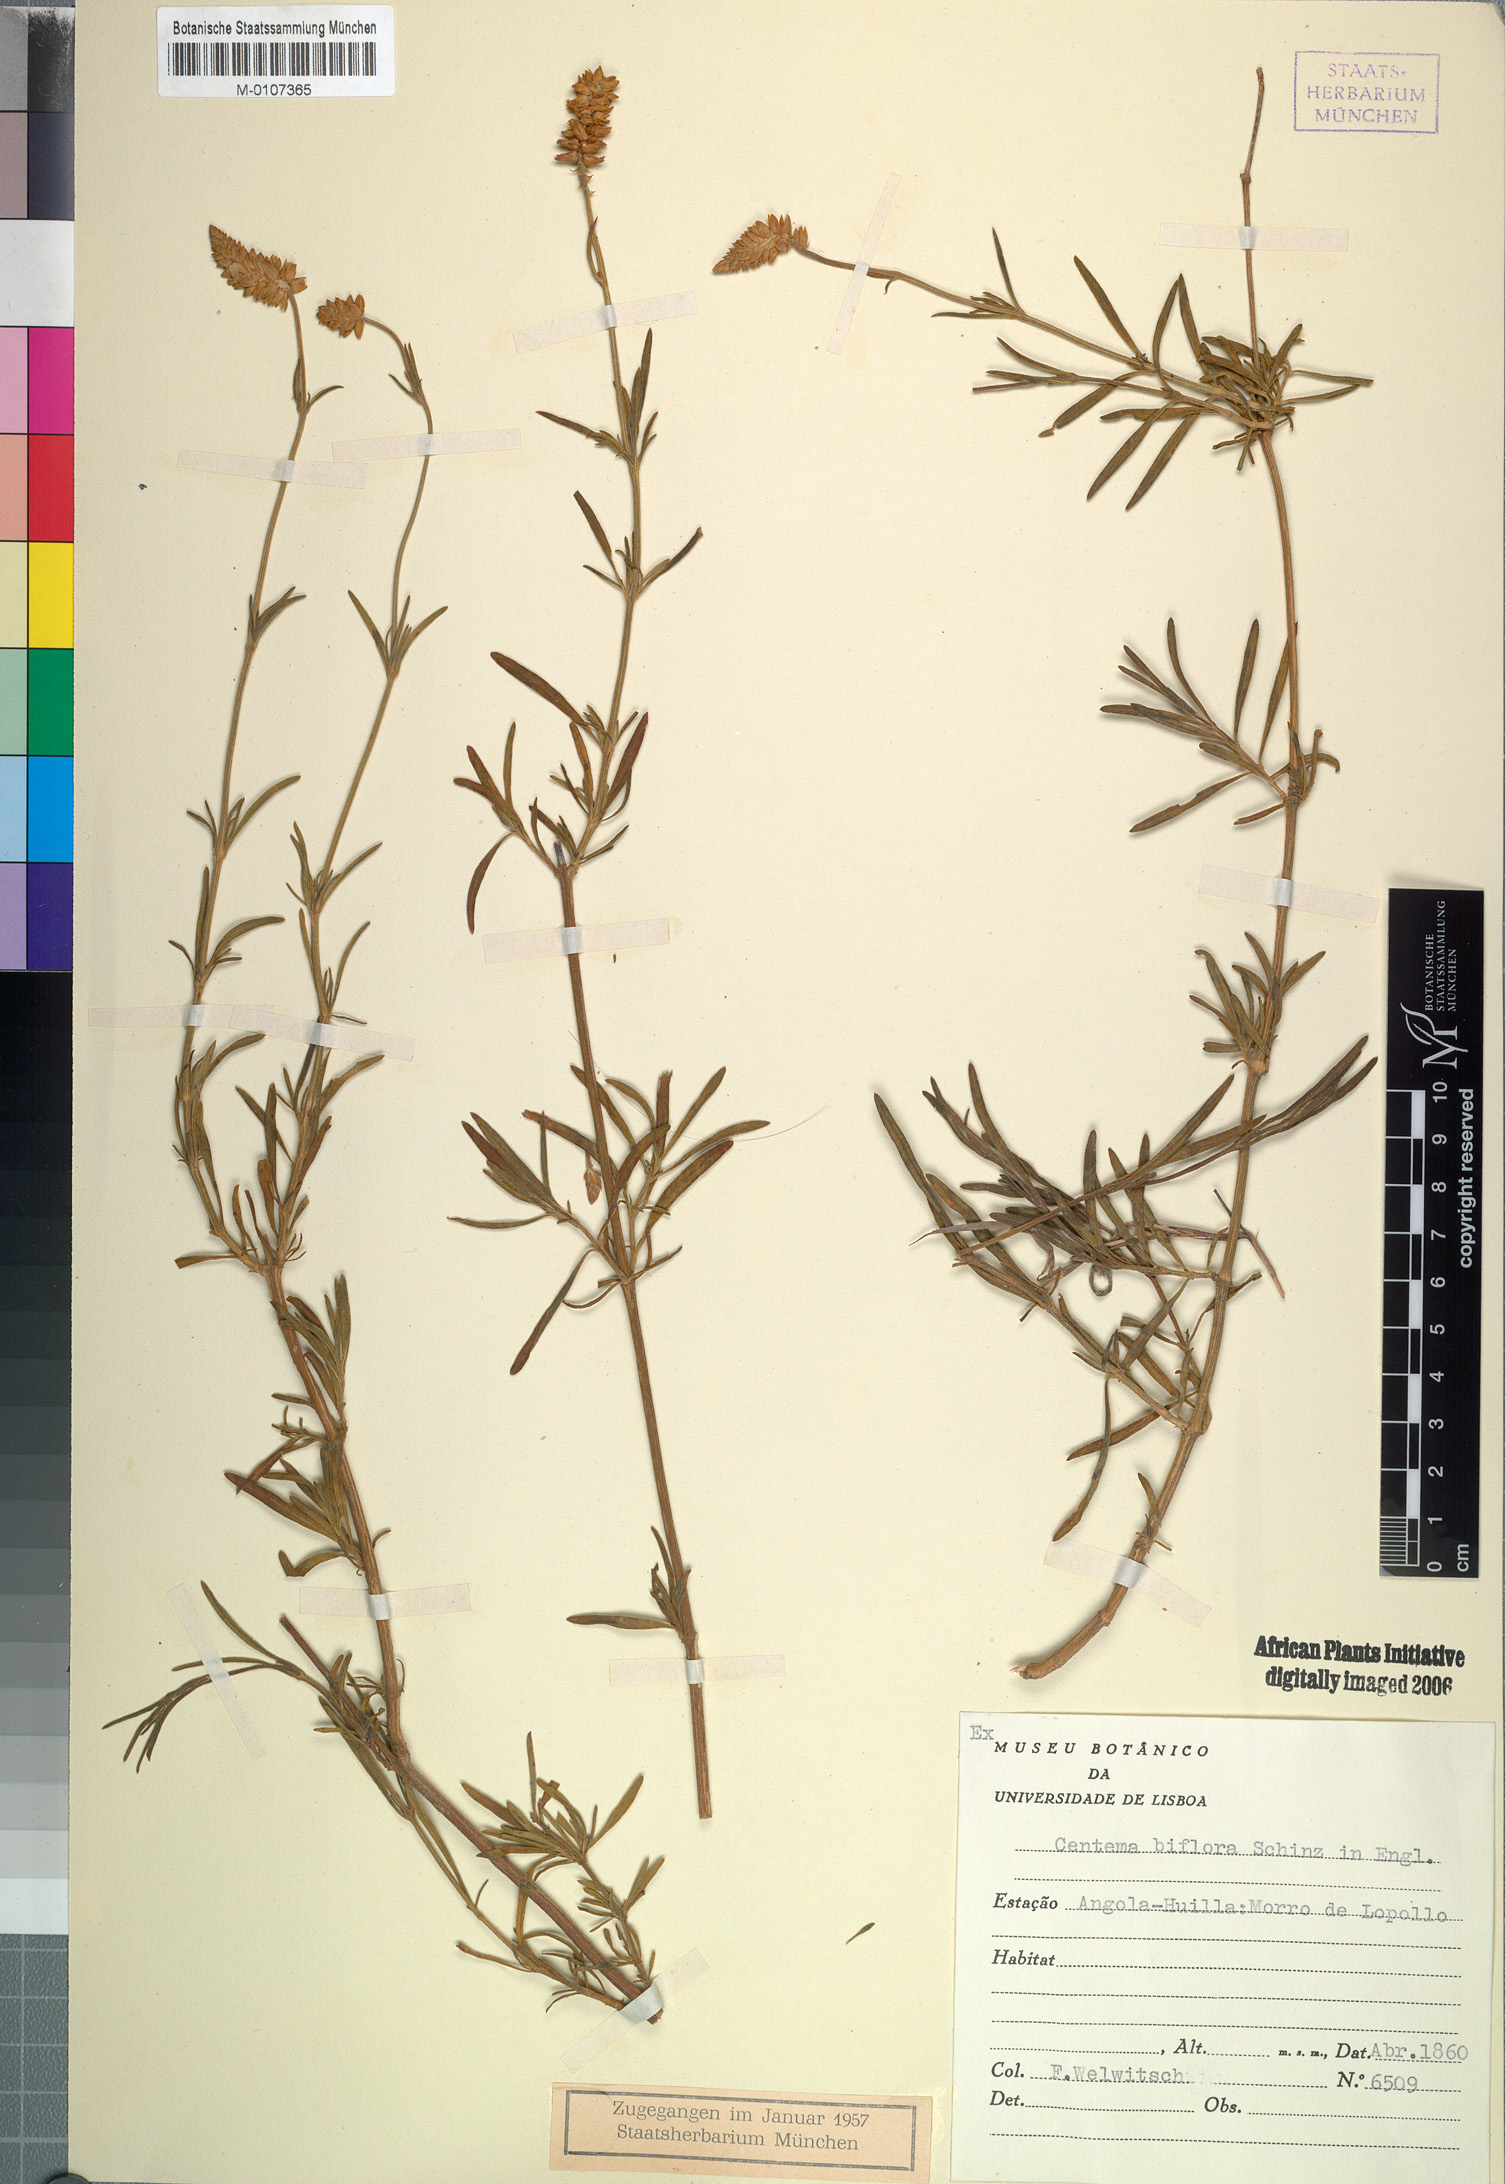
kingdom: Plantae
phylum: Tracheophyta
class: Magnoliopsida
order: Caryophyllales
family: Amaranthaceae
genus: Centemopsis
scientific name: Centemopsis biflora
